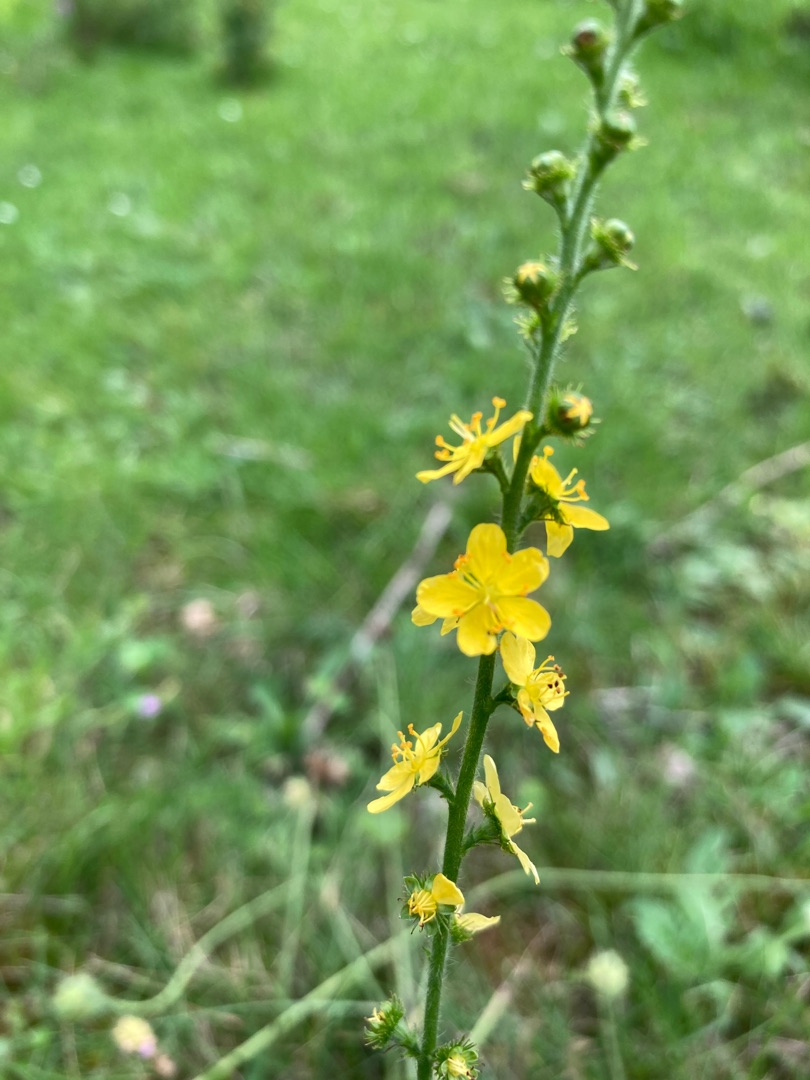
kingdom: Plantae
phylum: Tracheophyta
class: Magnoliopsida
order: Rosales
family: Rosaceae
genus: Agrimonia
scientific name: Agrimonia eupatoria
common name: Almindelig agermåne
